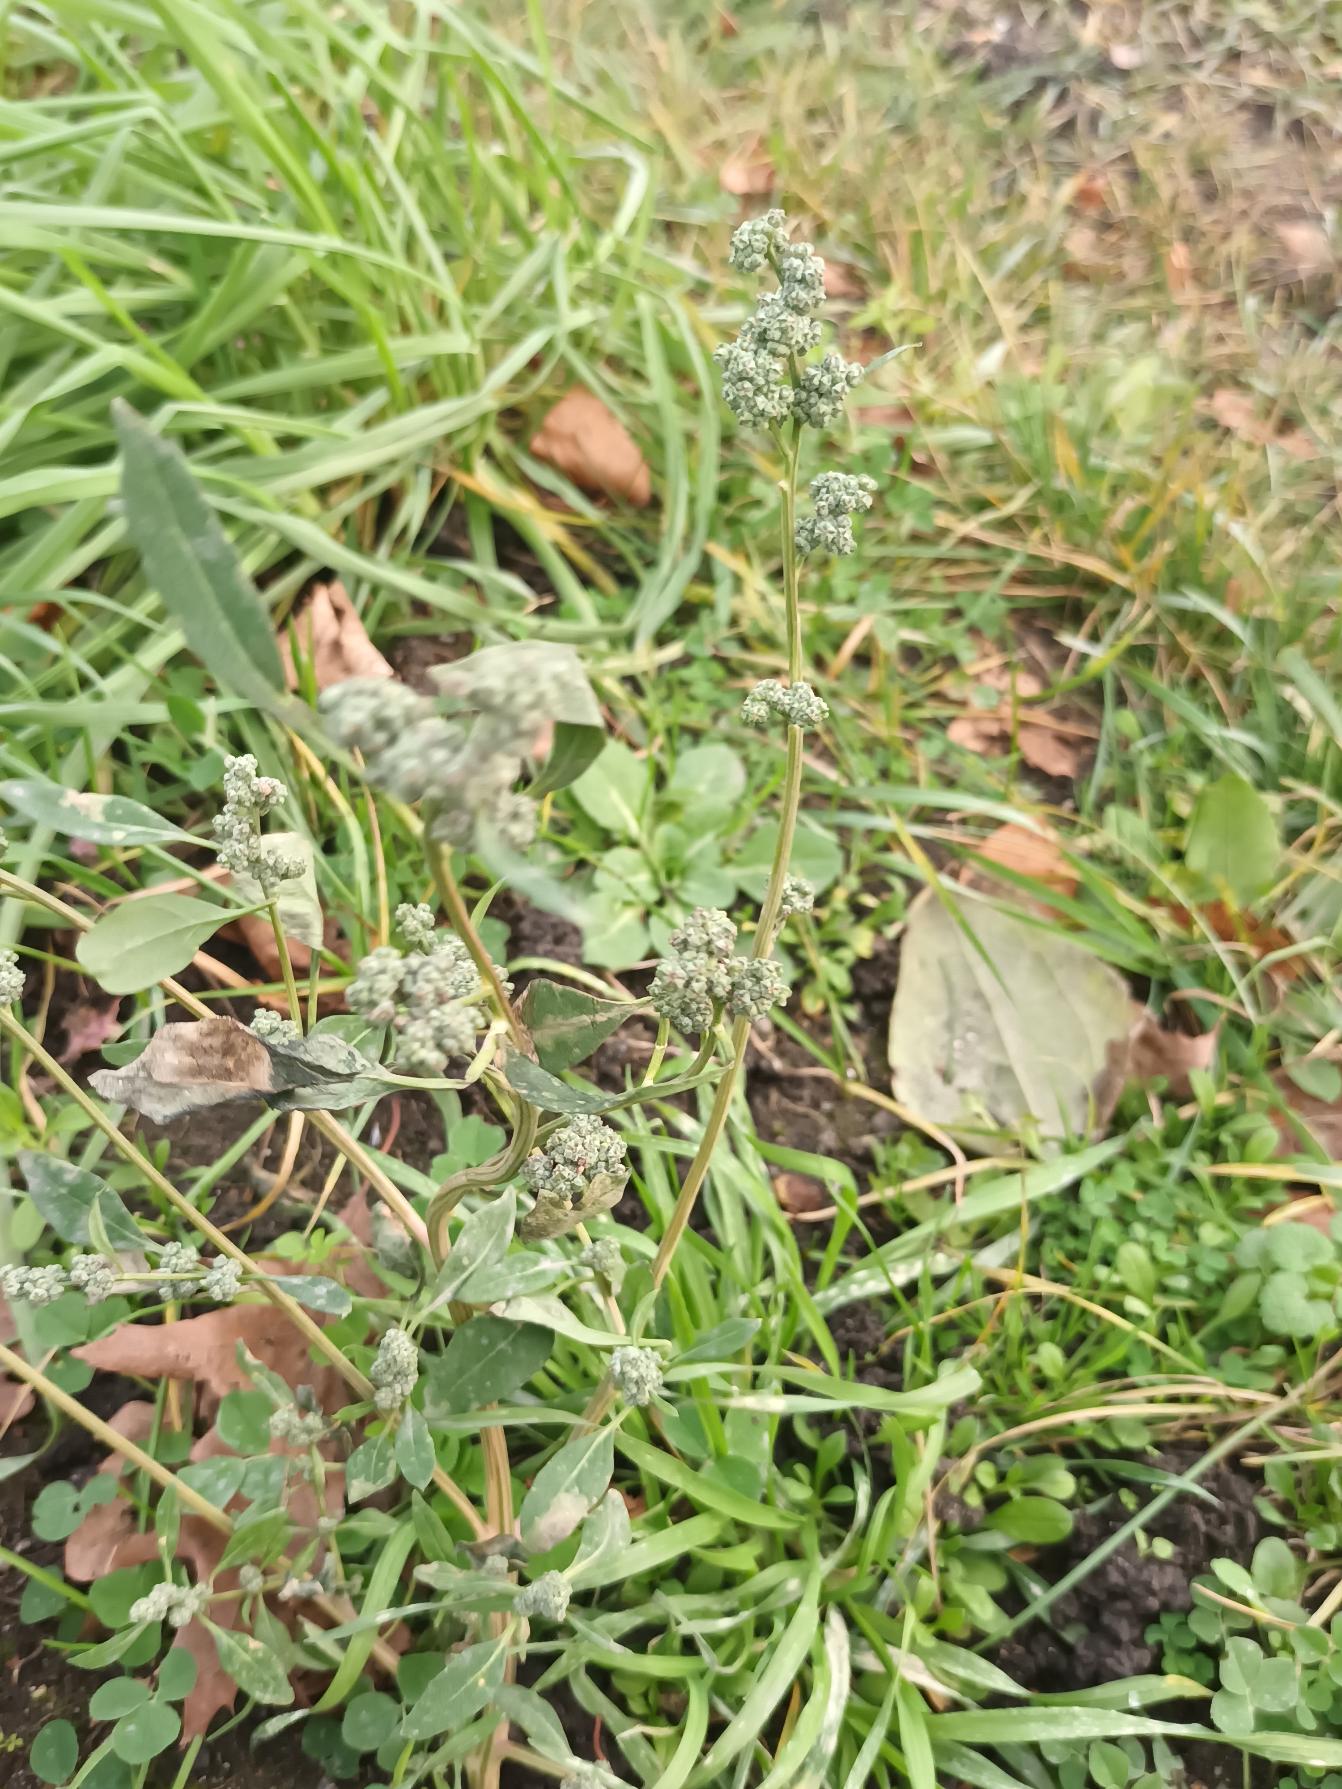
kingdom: Plantae
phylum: Tracheophyta
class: Magnoliopsida
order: Caryophyllales
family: Amaranthaceae
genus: Chenopodium
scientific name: Chenopodium album
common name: Hvidmelet gåsefod
